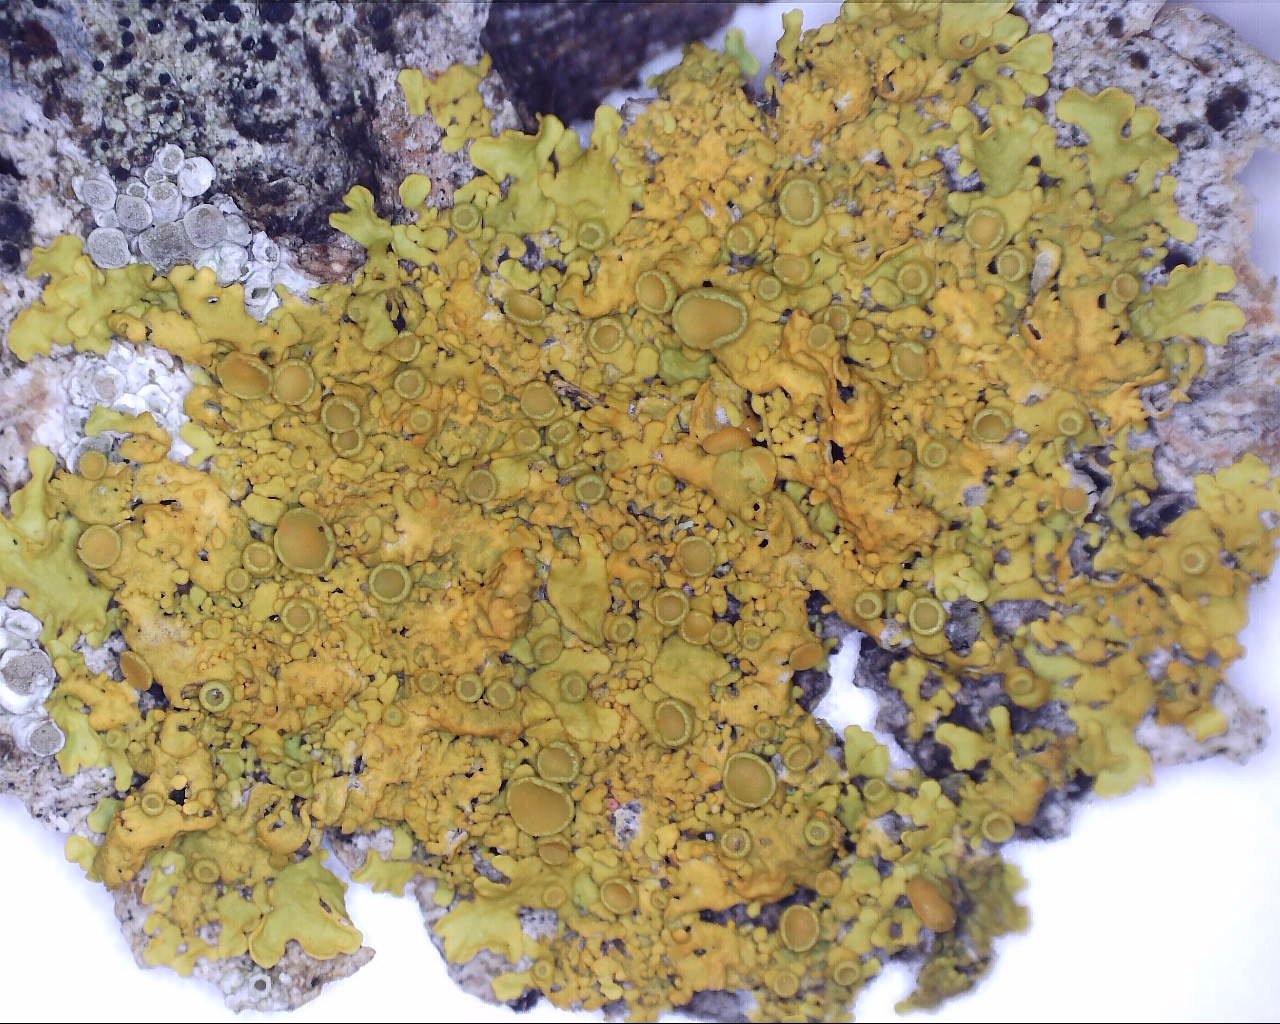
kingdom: Fungi
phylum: Ascomycota
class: Lecanoromycetes
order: Teloschistales
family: Teloschistaceae
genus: Xanthoria
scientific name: Xanthoria parietina
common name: almindelig væggelav
